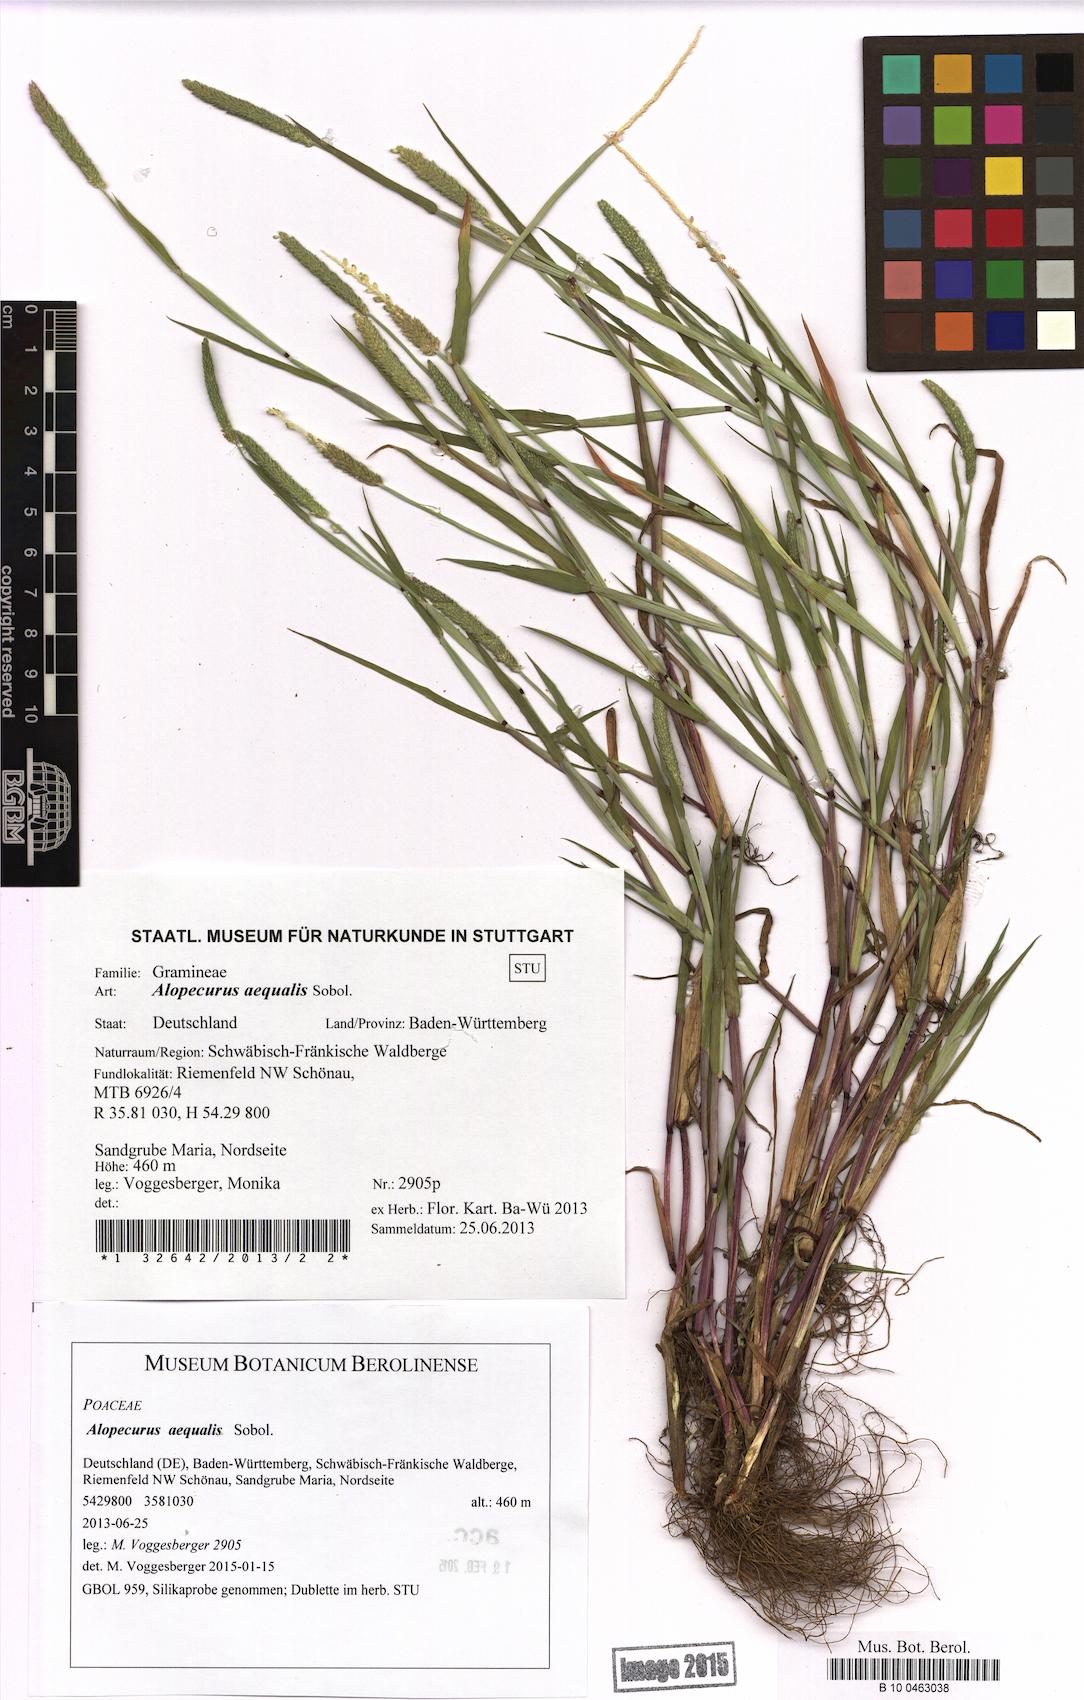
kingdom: Plantae
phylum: Tracheophyta
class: Liliopsida
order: Poales
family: Poaceae
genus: Alopecurus
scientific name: Alopecurus aequalis
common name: Orange foxtail
